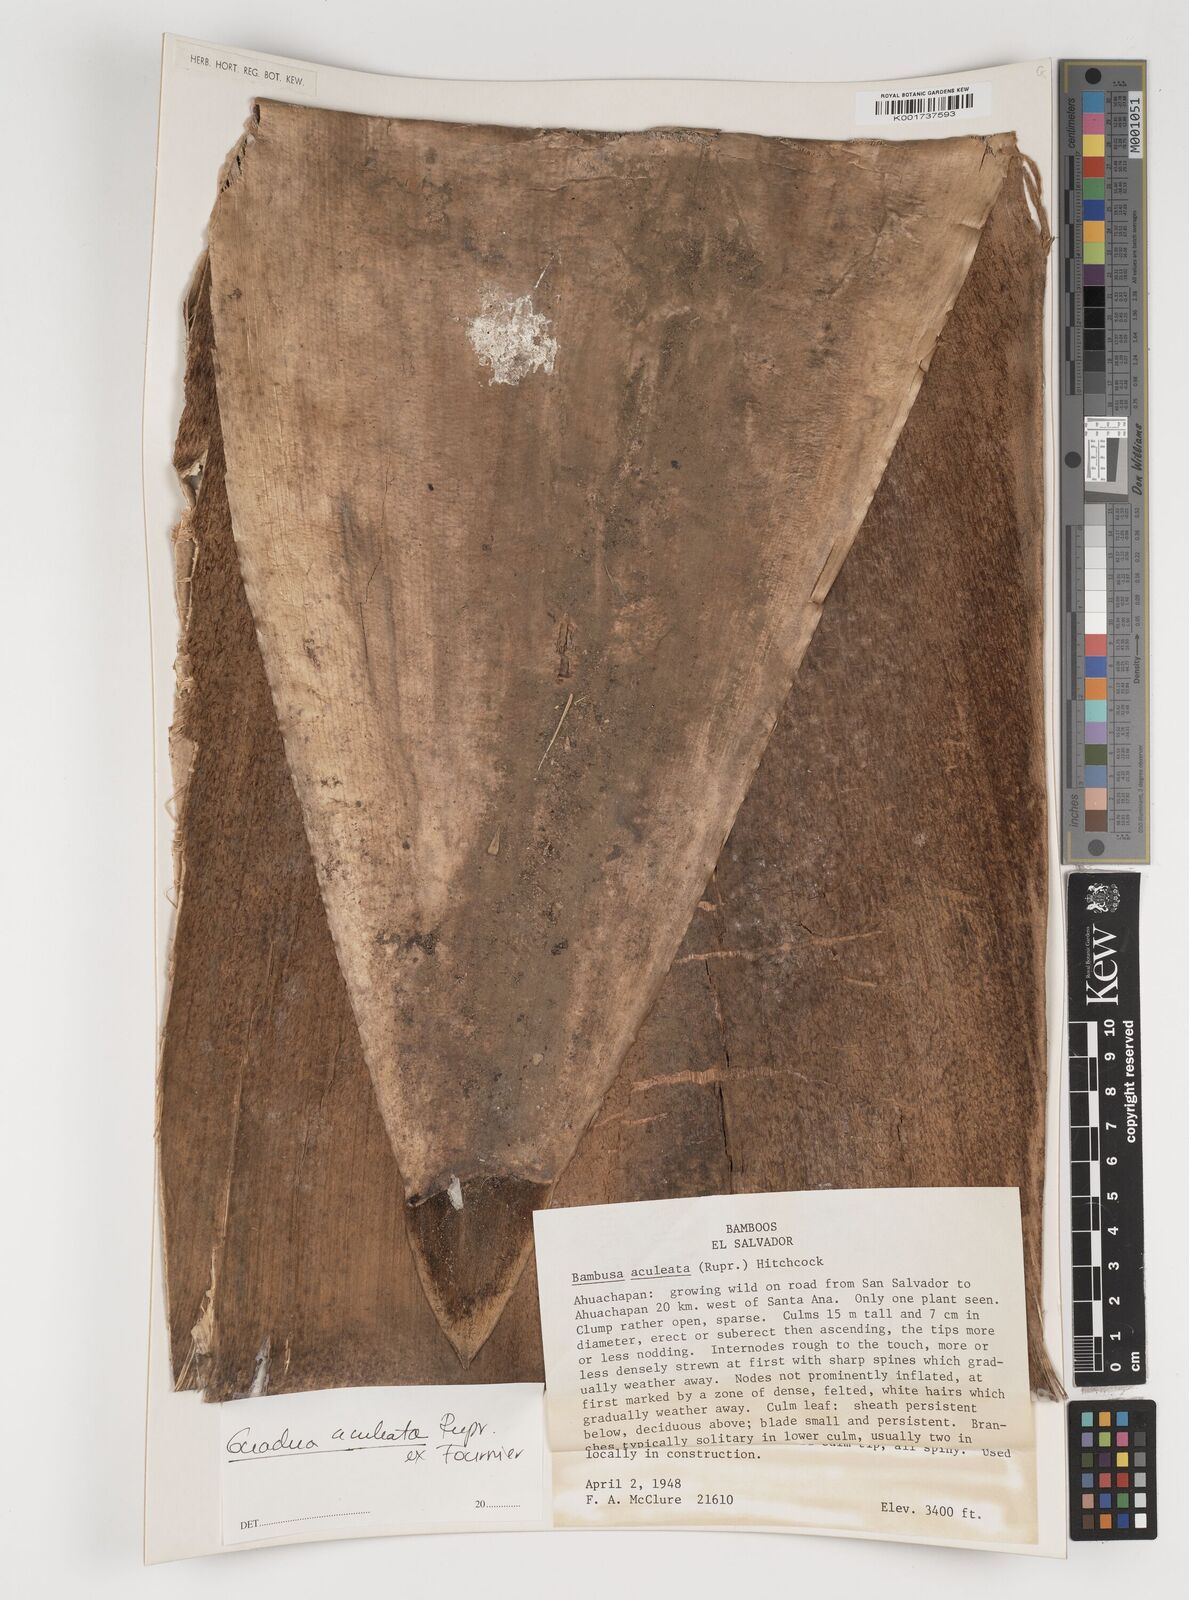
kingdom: Plantae
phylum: Tracheophyta
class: Liliopsida
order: Poales
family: Poaceae
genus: Guadua
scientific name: Guadua aculeata
